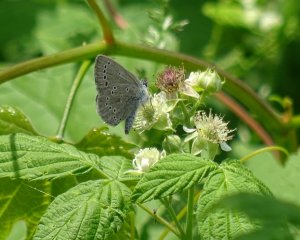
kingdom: Animalia
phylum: Arthropoda
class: Insecta
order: Lepidoptera
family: Lycaenidae
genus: Glaucopsyche
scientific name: Glaucopsyche lygdamus
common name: Silvery Blue
